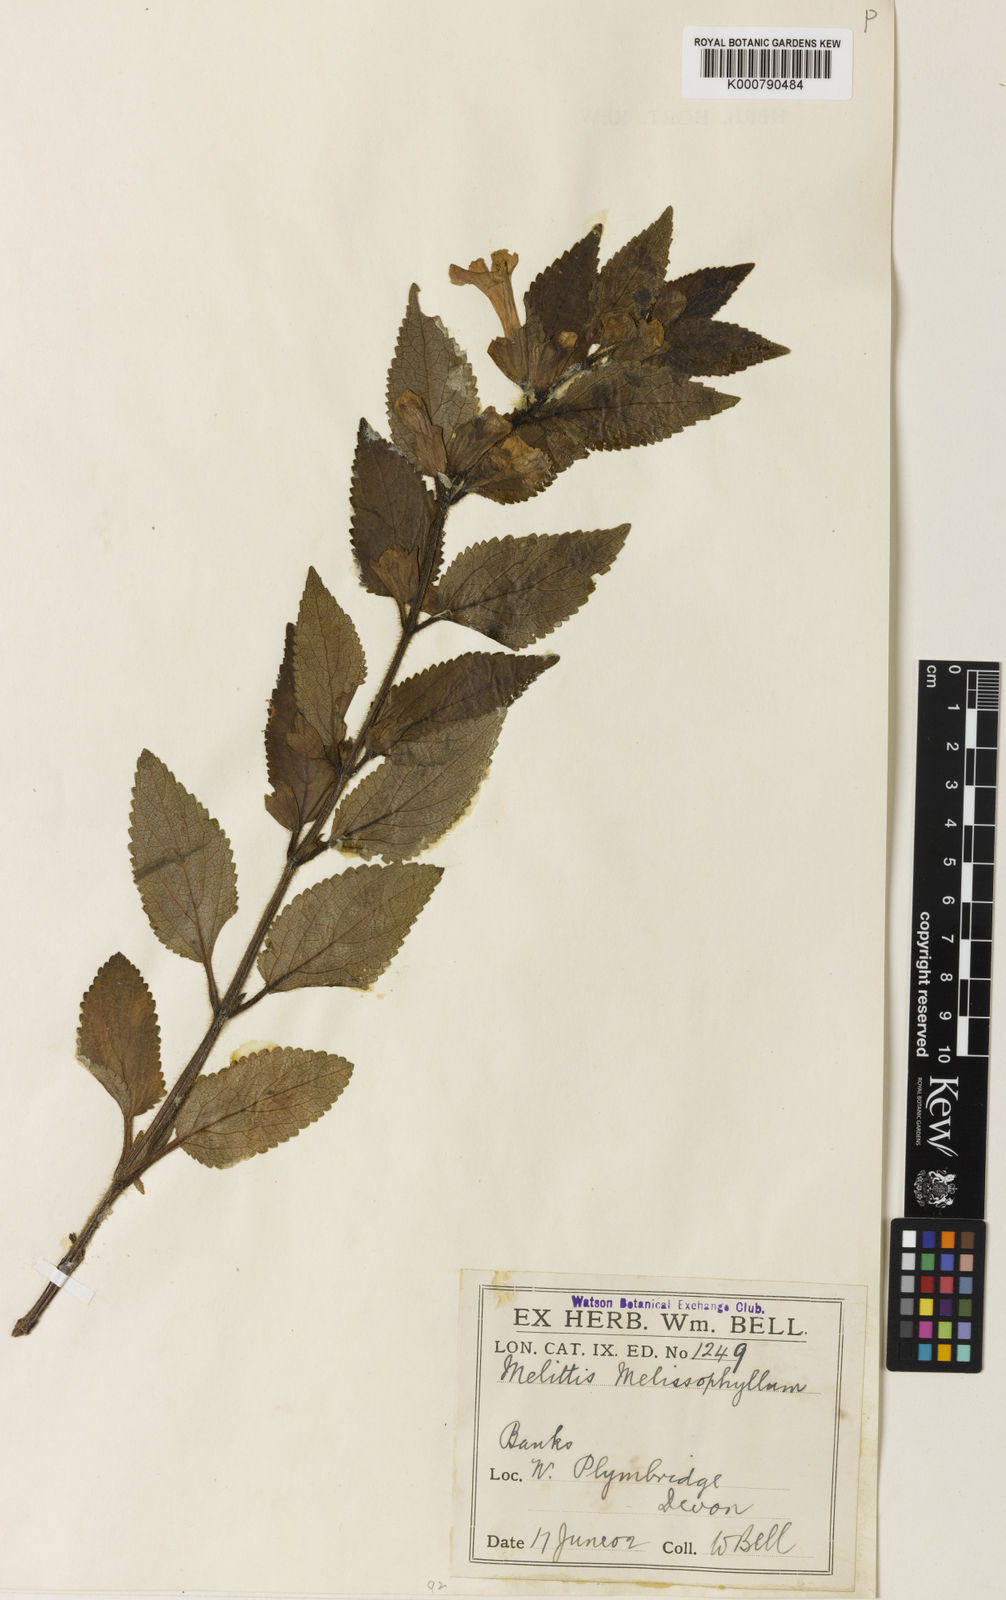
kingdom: Plantae
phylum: Tracheophyta
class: Magnoliopsida
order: Lamiales
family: Lamiaceae
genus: Melittis
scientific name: Melittis melissophyllum
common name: Bastard balm
